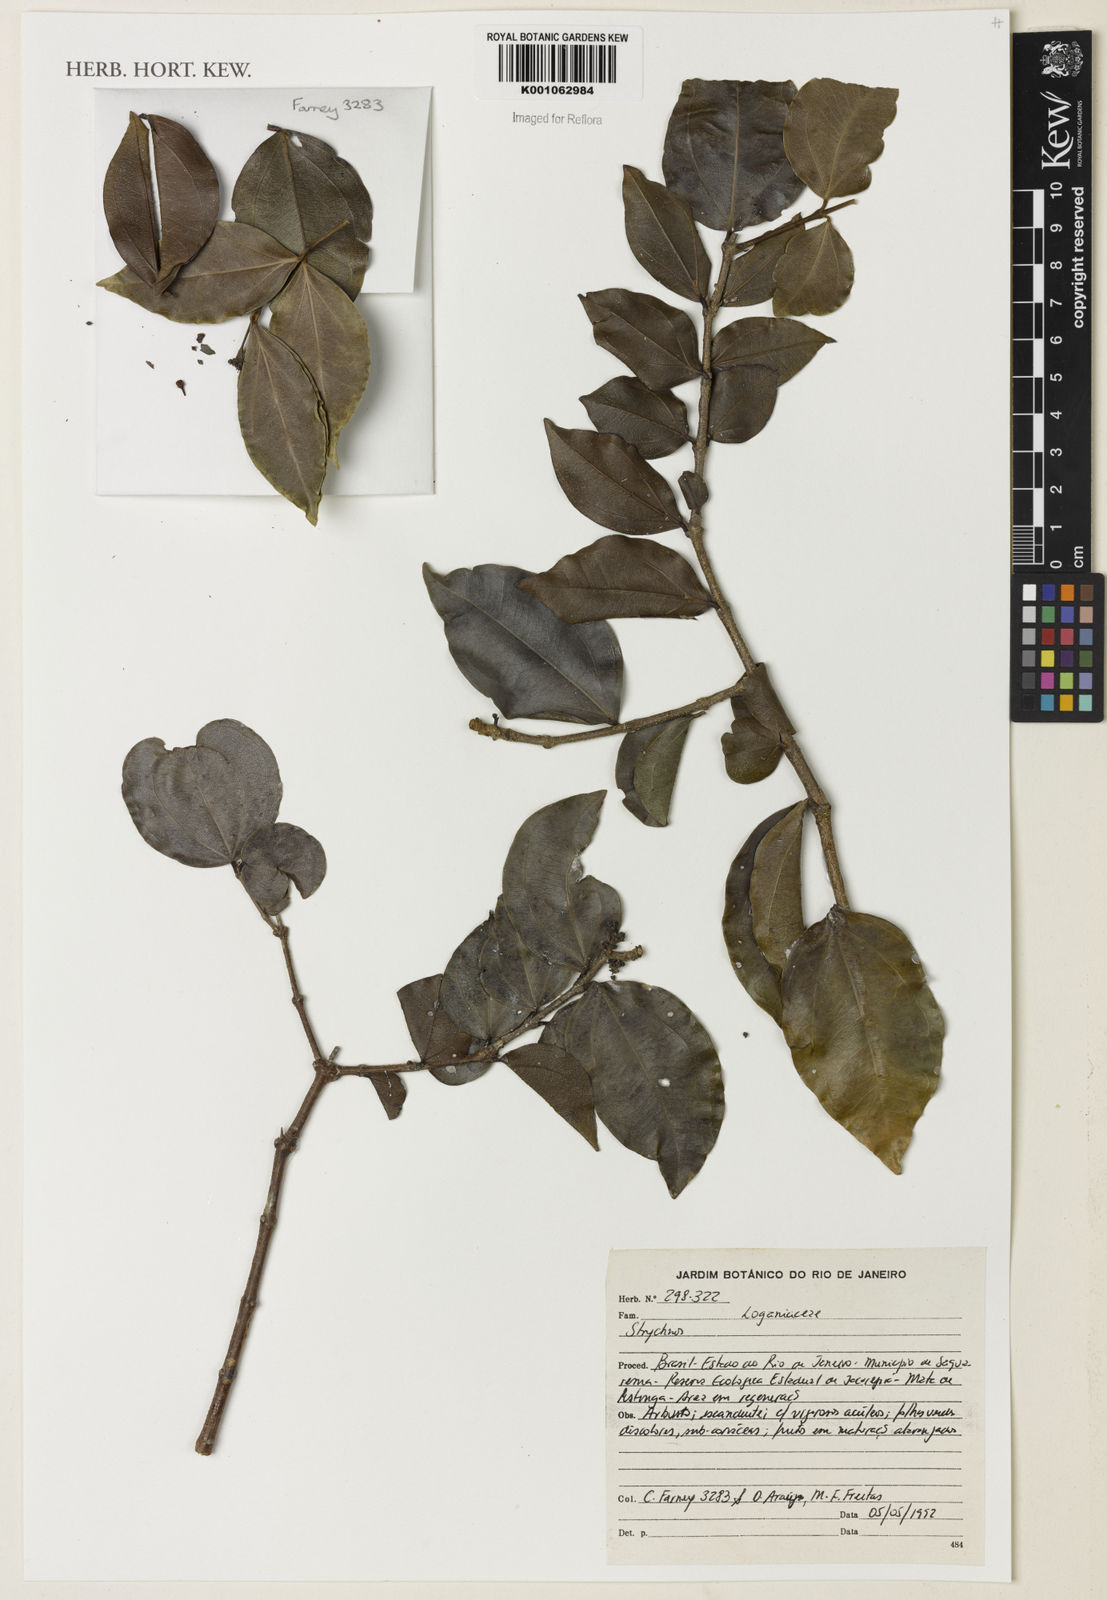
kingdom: Plantae
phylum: Tracheophyta
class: Magnoliopsida
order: Gentianales
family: Loganiaceae
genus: Strychnos
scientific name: Strychnos
